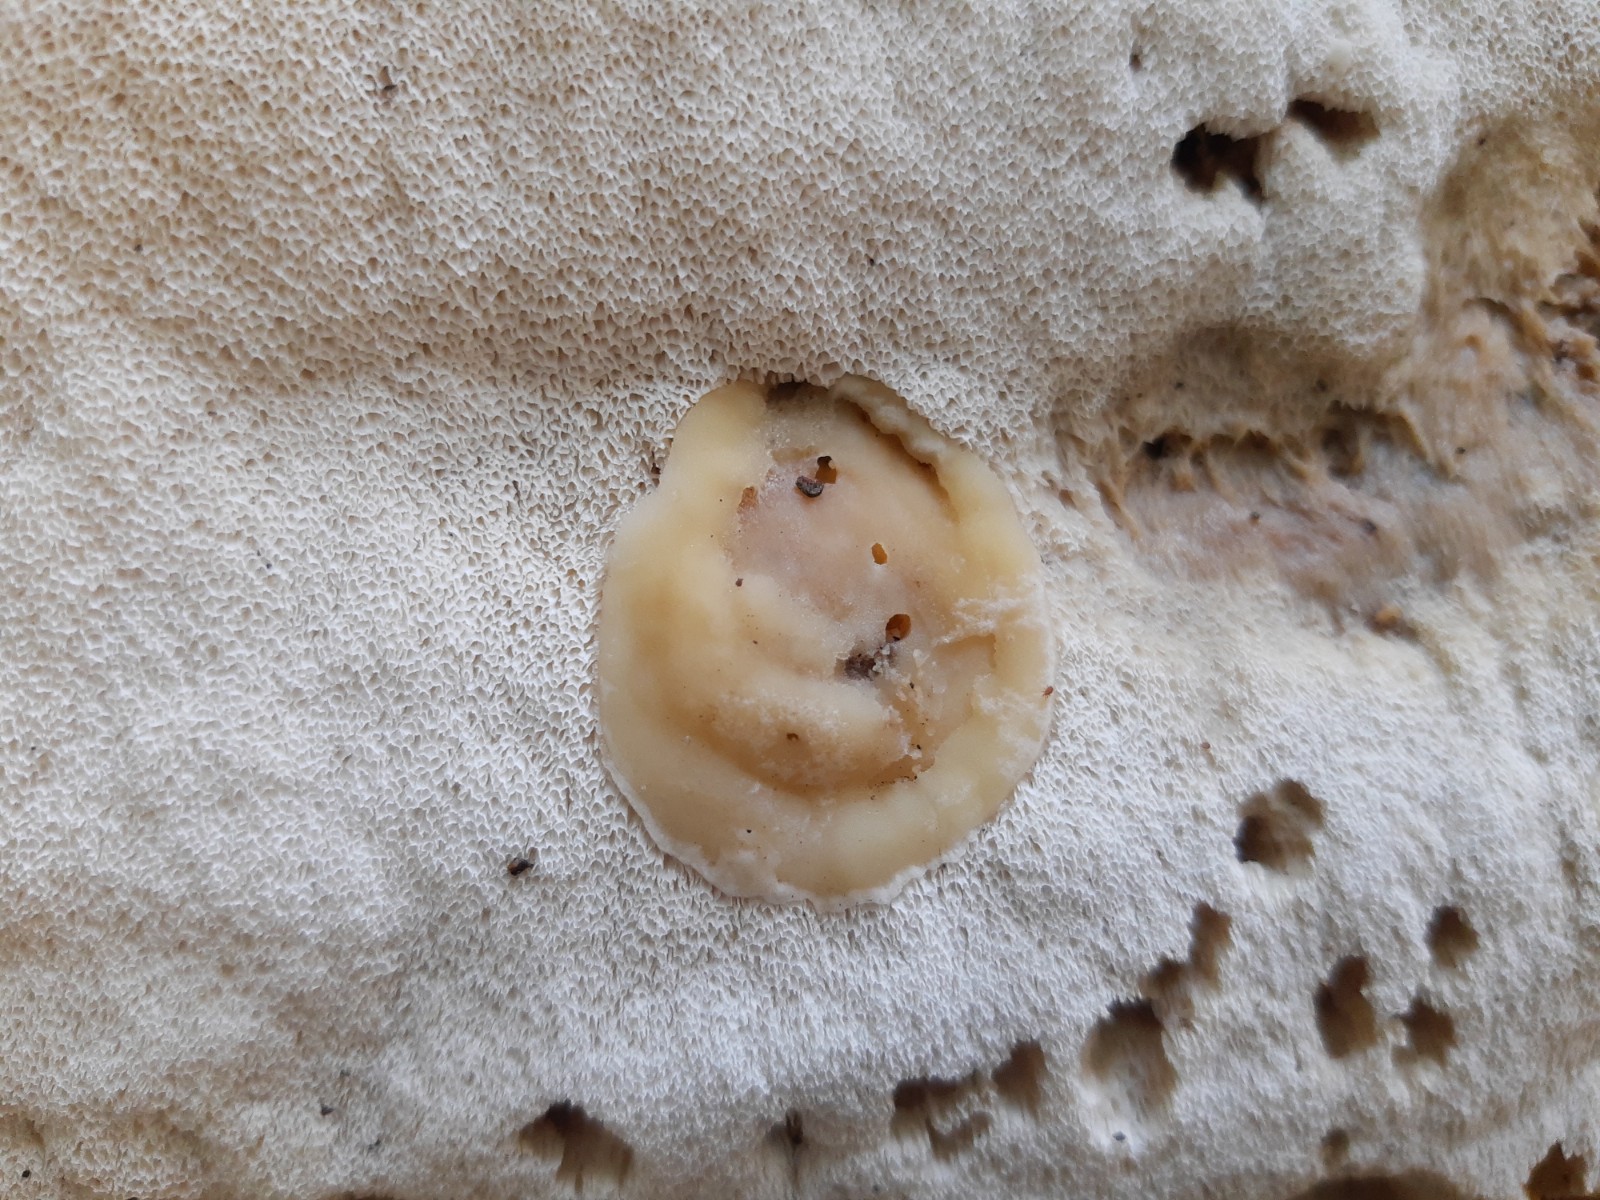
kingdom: Fungi
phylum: Basidiomycota
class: Agaricomycetes
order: Polyporales
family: Cerrenaceae
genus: Raduliporus
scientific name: Raduliporus aneirinus
